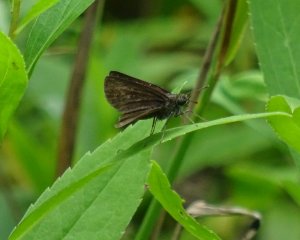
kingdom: Animalia
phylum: Arthropoda
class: Insecta
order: Lepidoptera
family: Hesperiidae
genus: Euphyes
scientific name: Euphyes vestris
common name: Dun Skipper
